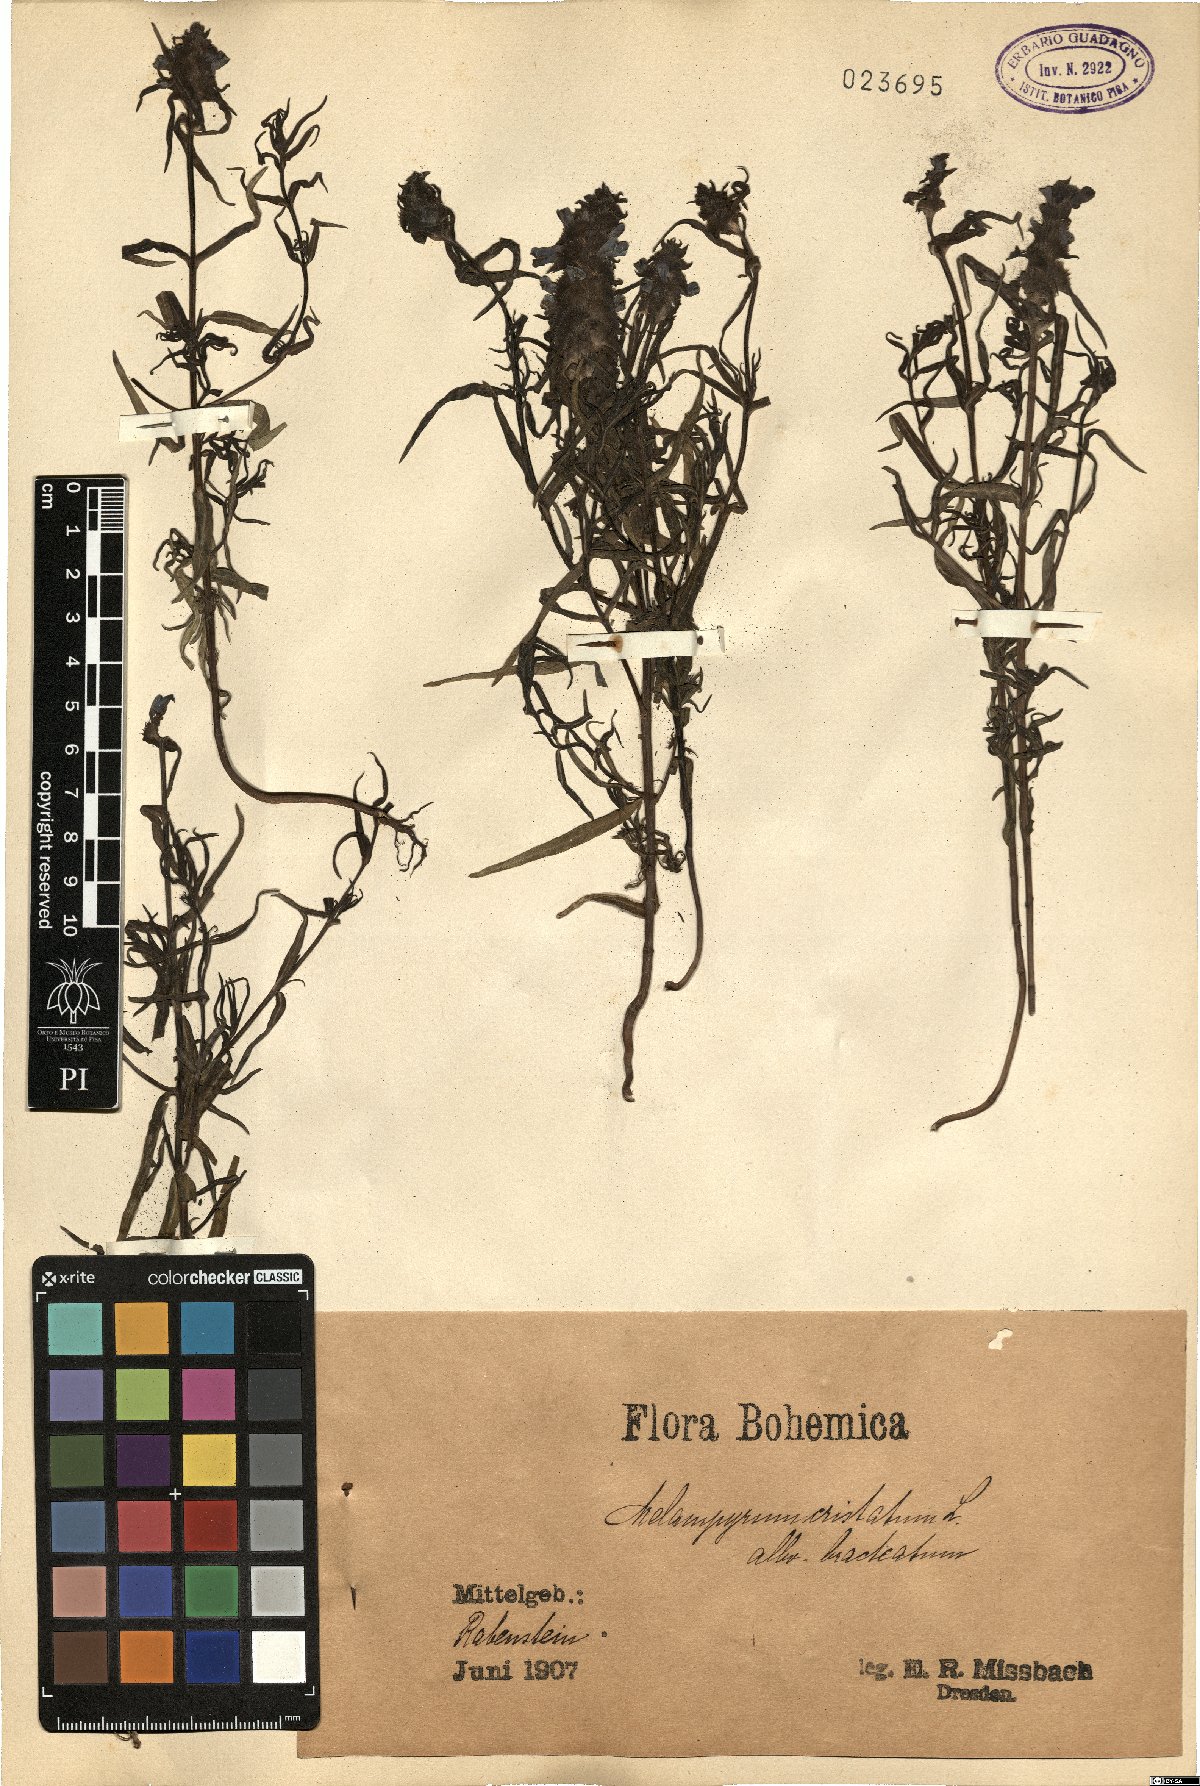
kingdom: Plantae
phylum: Tracheophyta
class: Magnoliopsida
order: Lamiales
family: Orobanchaceae
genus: Melampyrum
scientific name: Melampyrum cristatum
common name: Crested cow-wheat
